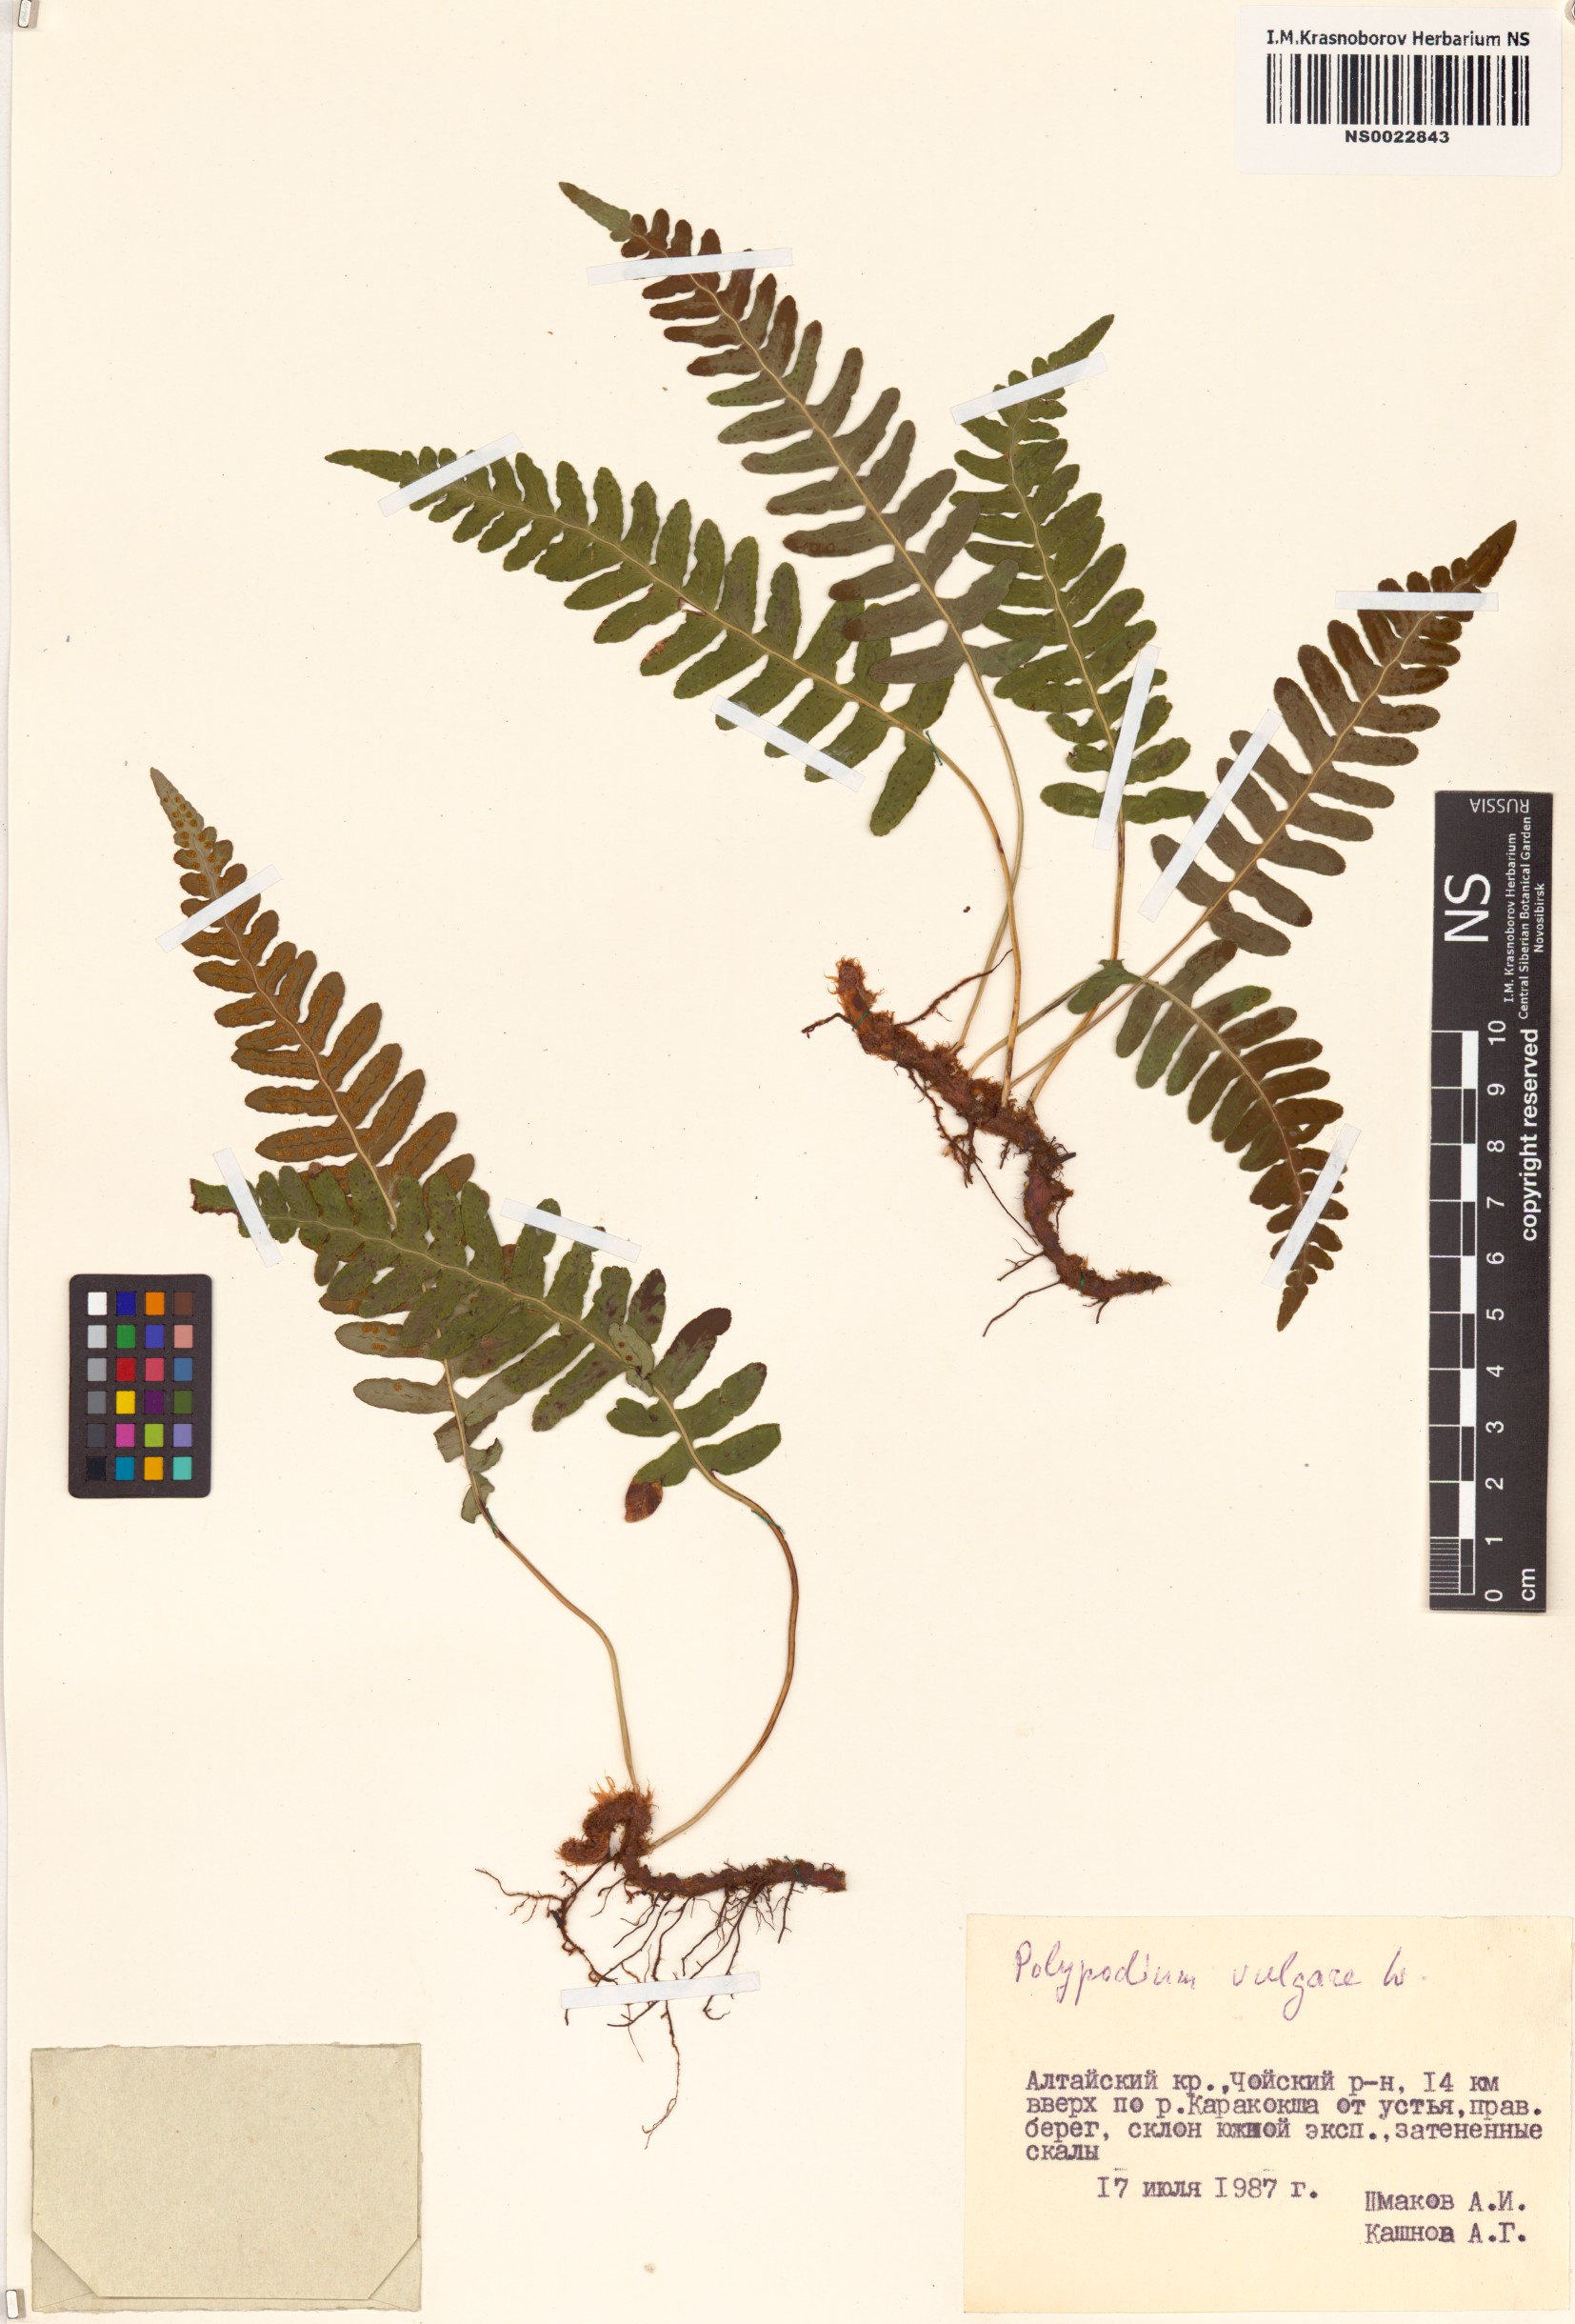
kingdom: Plantae
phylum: Tracheophyta
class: Polypodiopsida
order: Polypodiales
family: Polypodiaceae
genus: Polypodium
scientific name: Polypodium vulgare
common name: Common polypody
